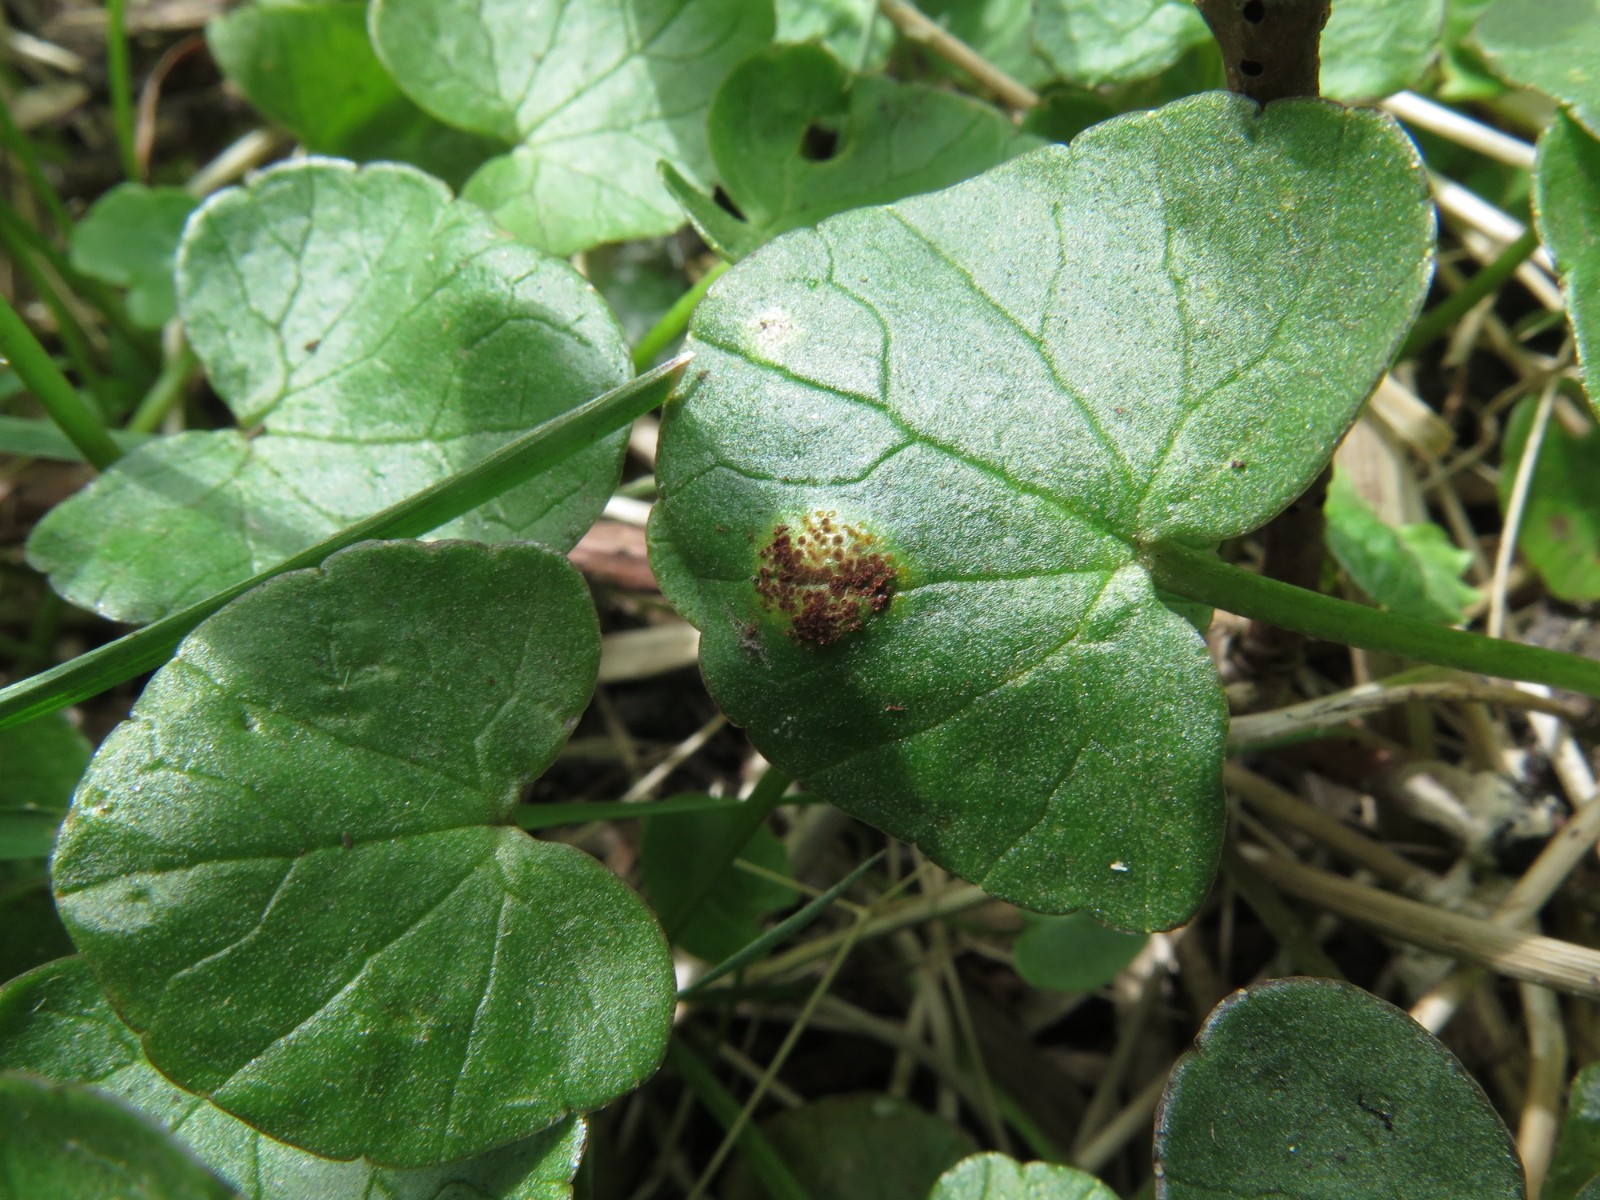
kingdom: Fungi
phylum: Basidiomycota
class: Pucciniomycetes
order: Pucciniales
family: Pucciniaceae
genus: Uromyces
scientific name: Uromyces ficariae
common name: vorterod-encellerust
